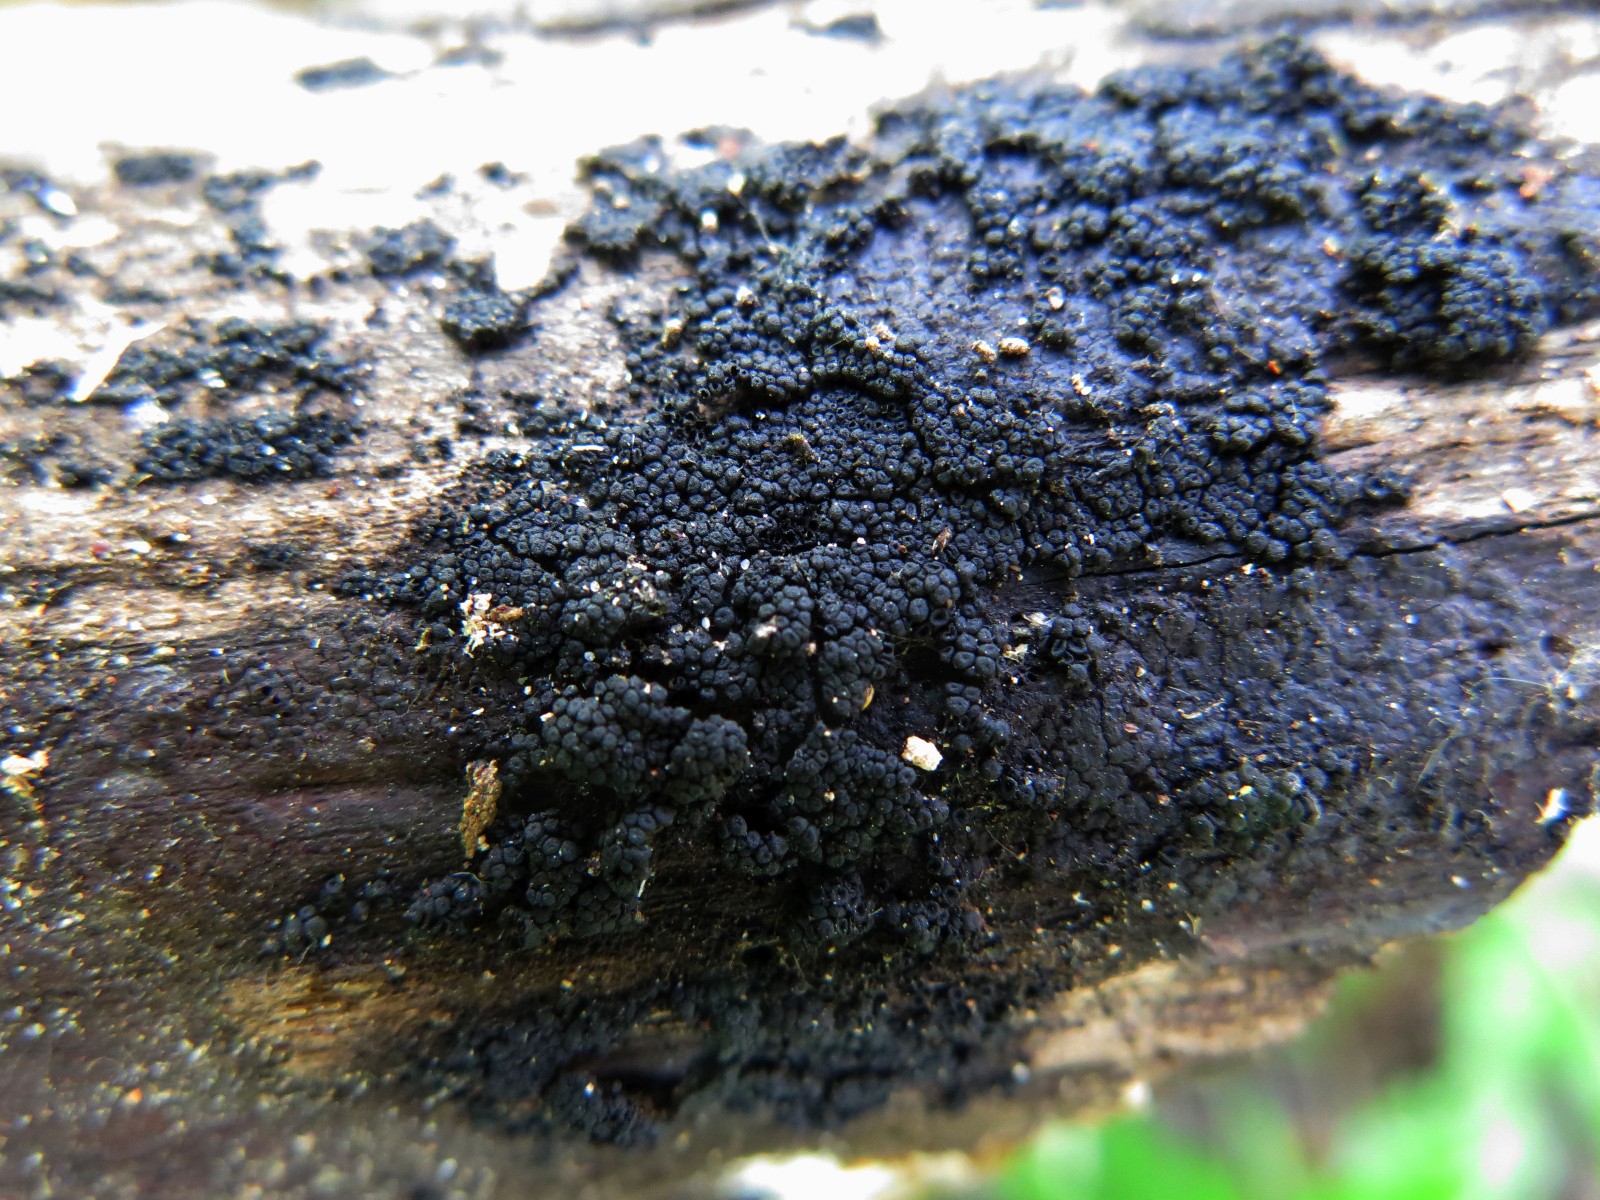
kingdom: Fungi
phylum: Ascomycota
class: Sordariomycetes
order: Coronophorales
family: Nitschkiaceae
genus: Nitschkia
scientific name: Nitschkia cupularis
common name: almindelig skålkerne
